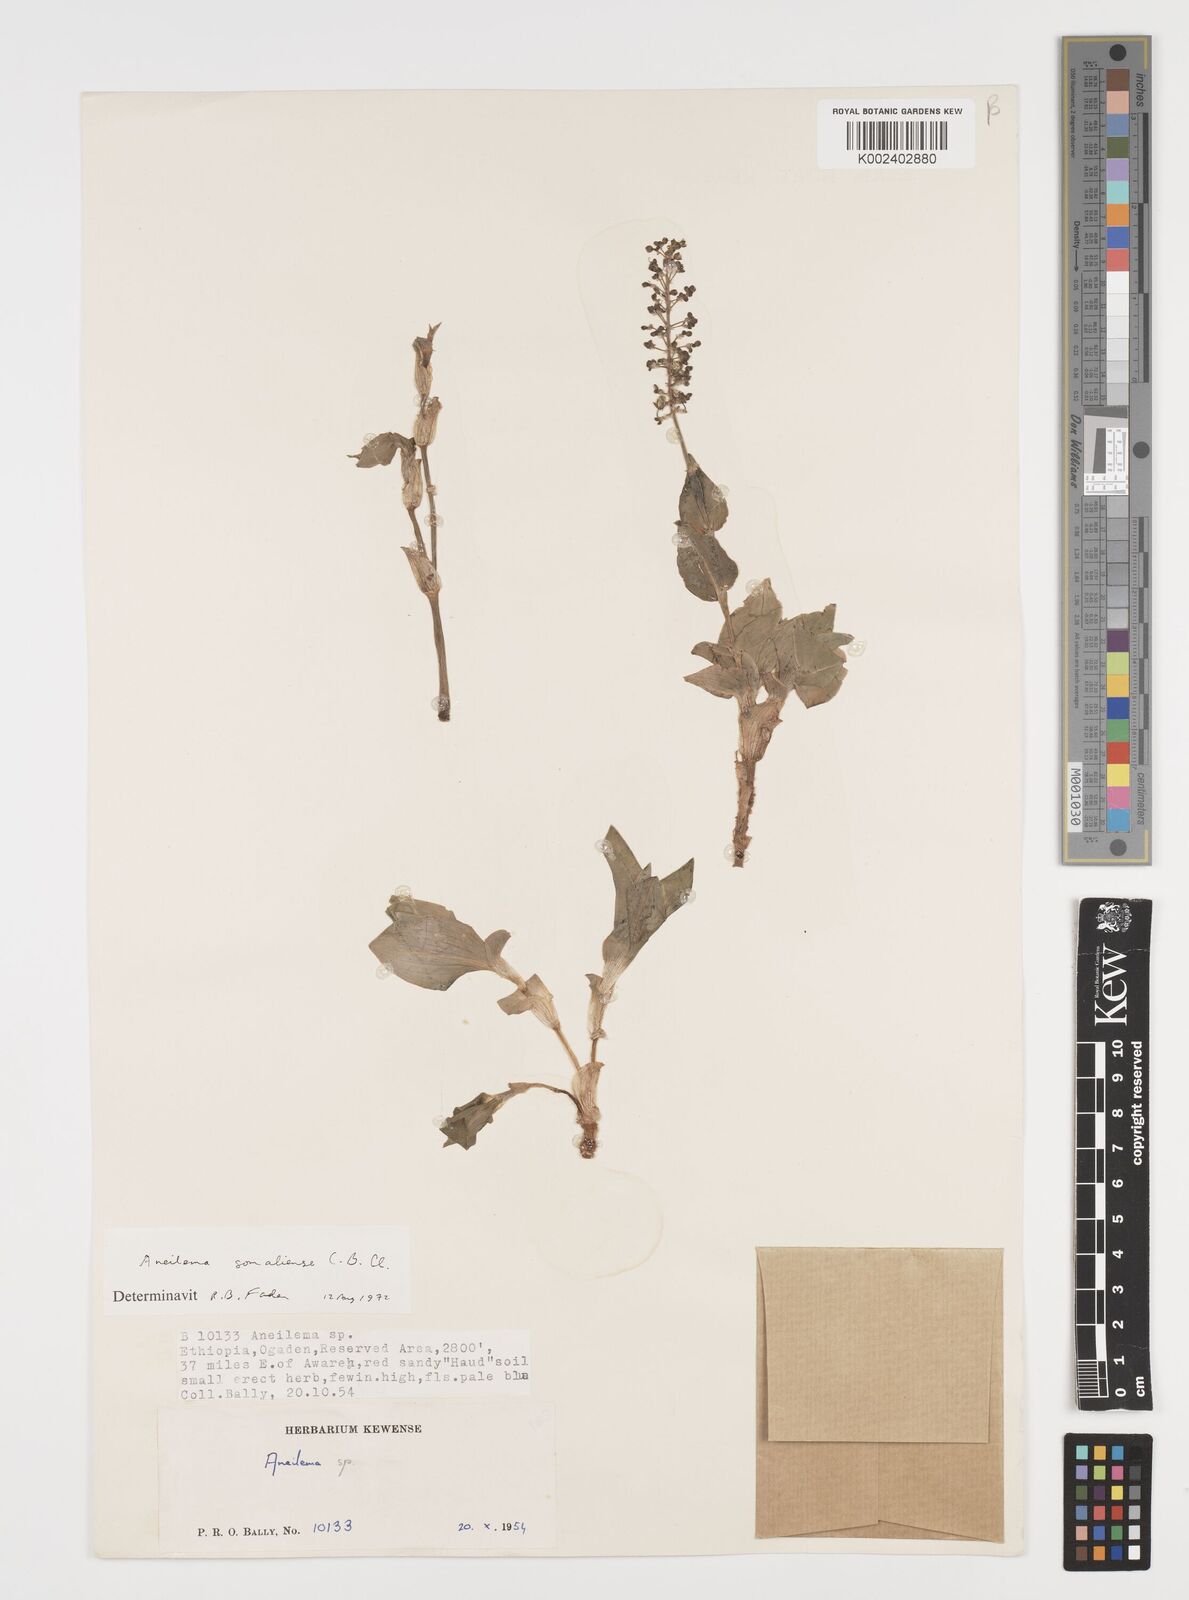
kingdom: Plantae
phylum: Tracheophyta
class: Liliopsida
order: Commelinales
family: Commelinaceae
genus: Aneilema
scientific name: Aneilema somaliense
